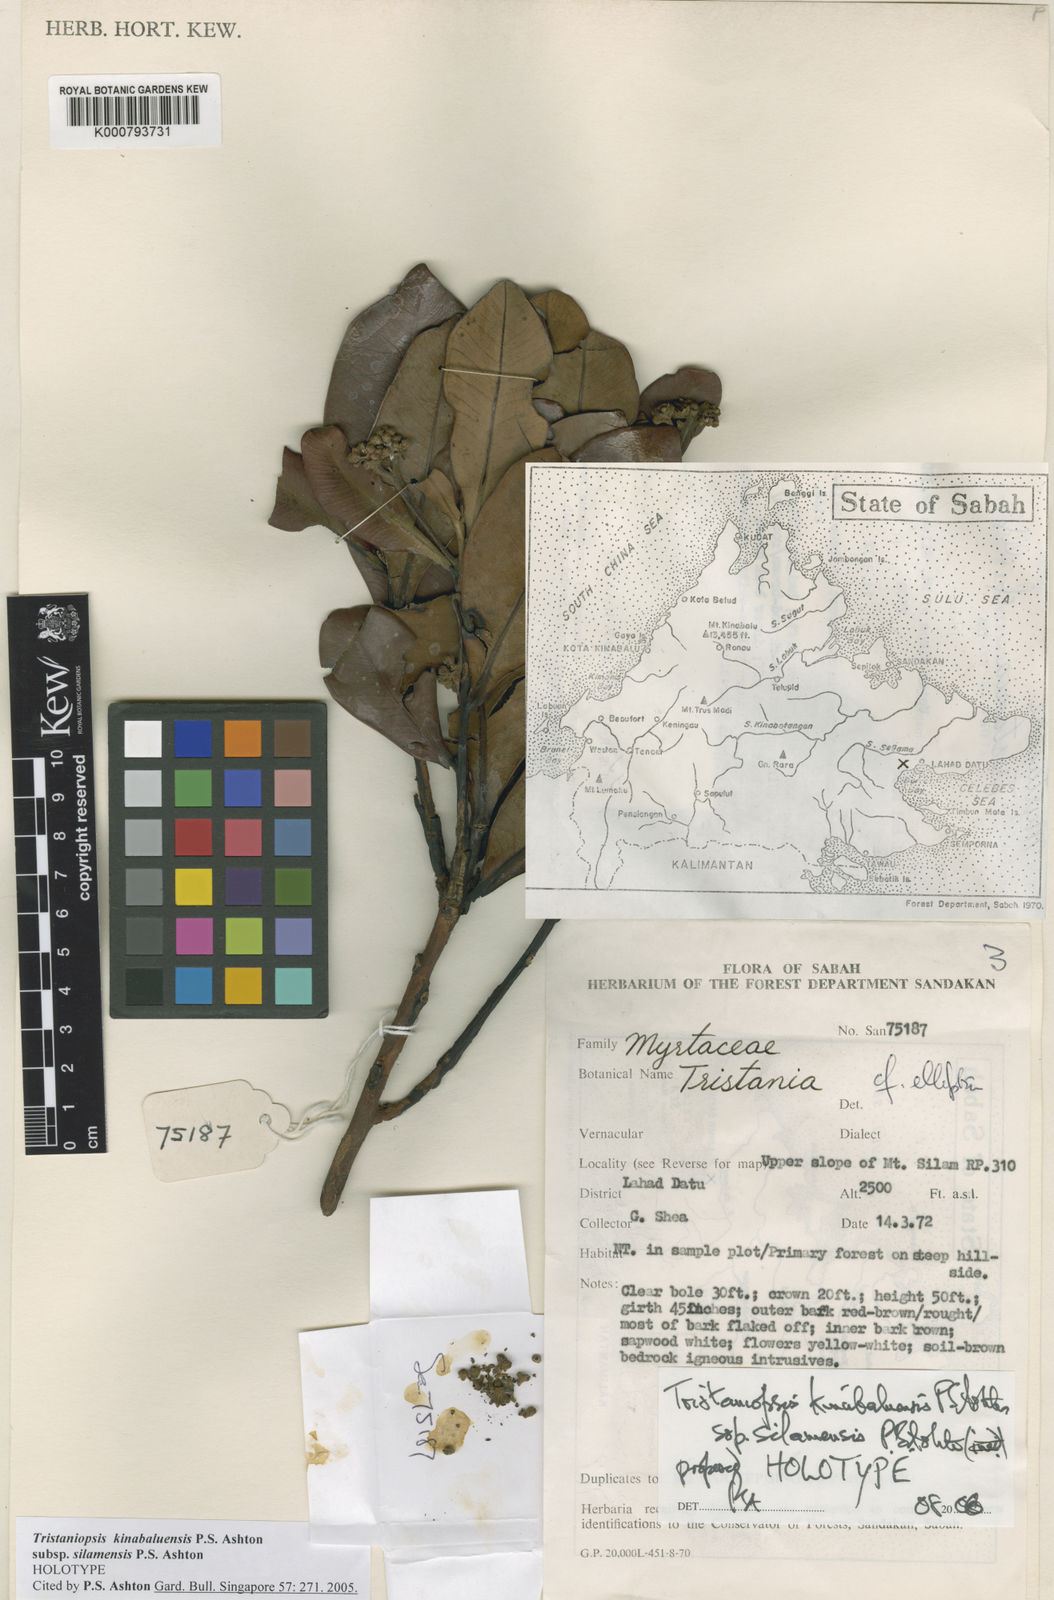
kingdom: Plantae
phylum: Tracheophyta
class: Magnoliopsida
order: Myrtales
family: Myrtaceae
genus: Tristaniopsis
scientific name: Tristaniopsis kinabaluensis
